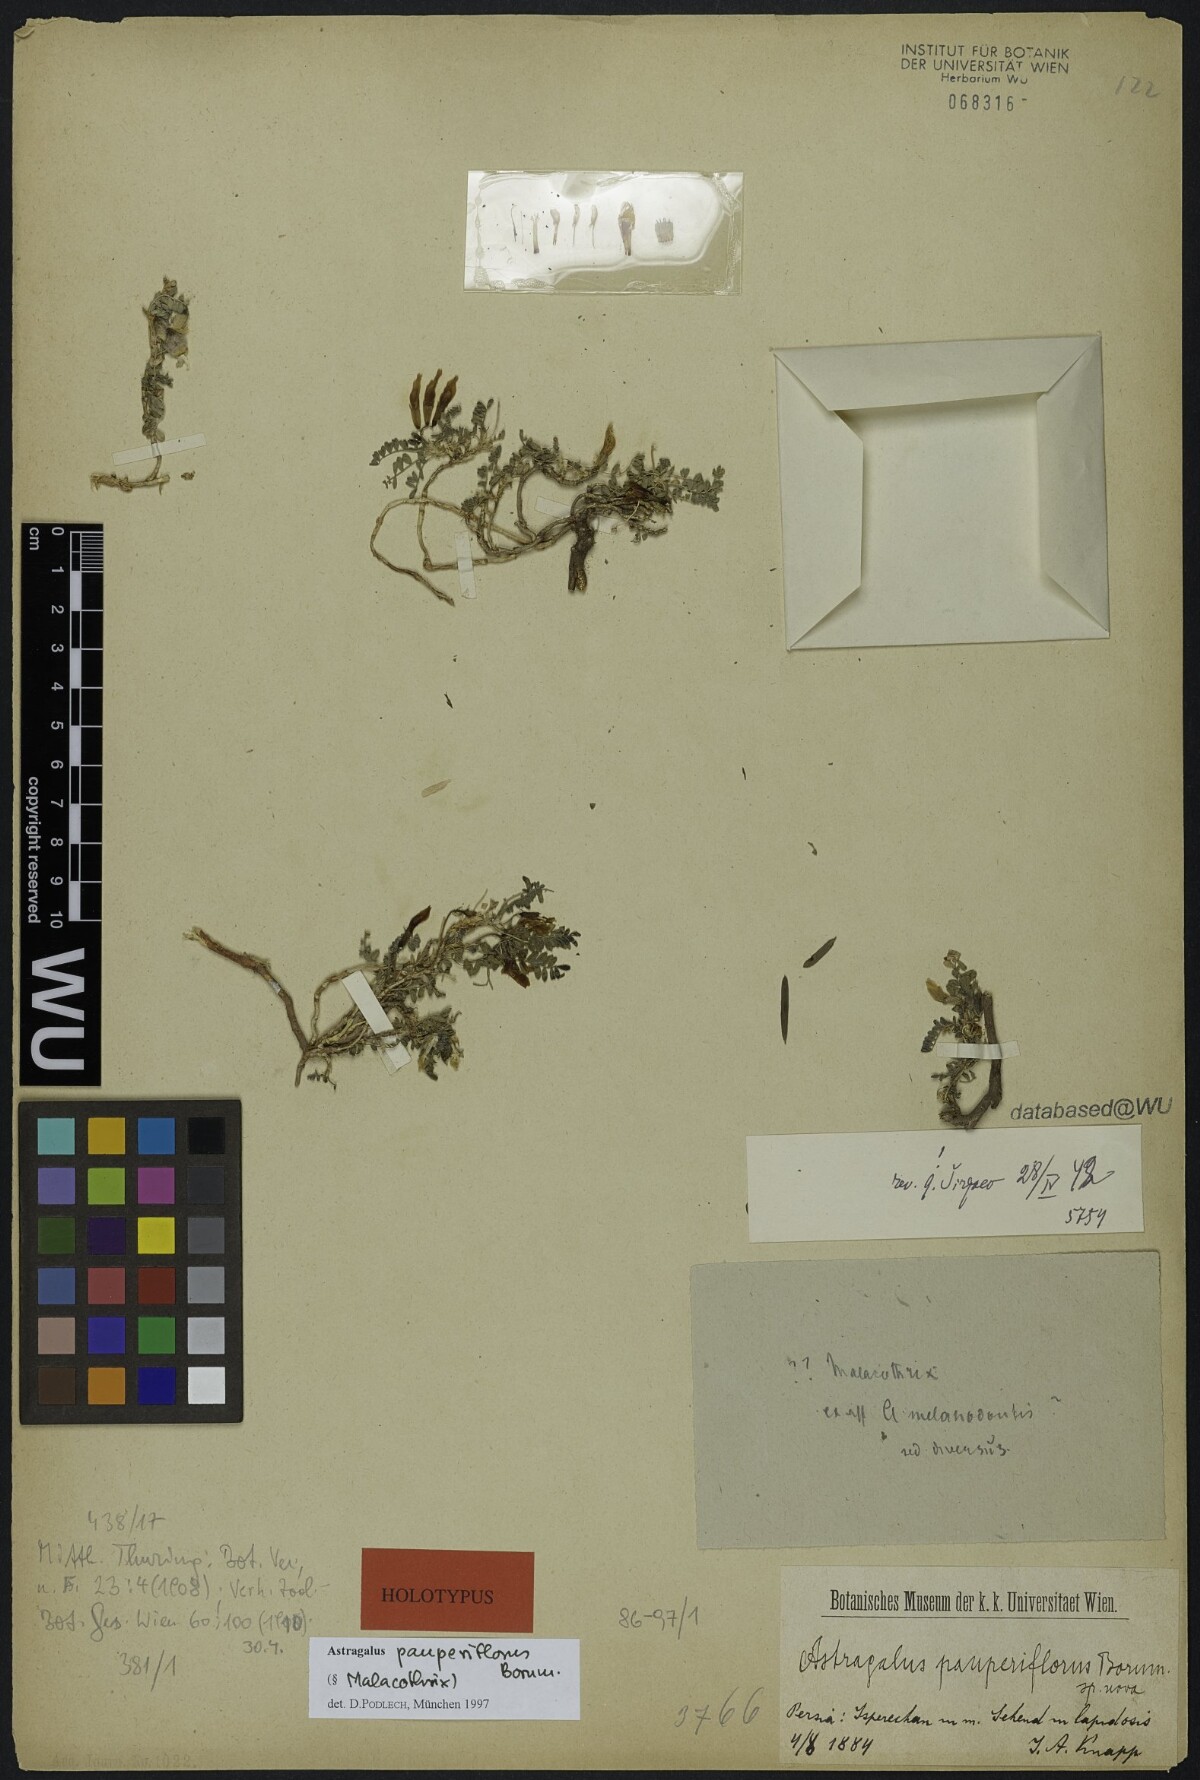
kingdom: Plantae
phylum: Tracheophyta
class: Magnoliopsida
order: Fabales
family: Fabaceae
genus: Astragalus
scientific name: Astragalus pauperiflorus
